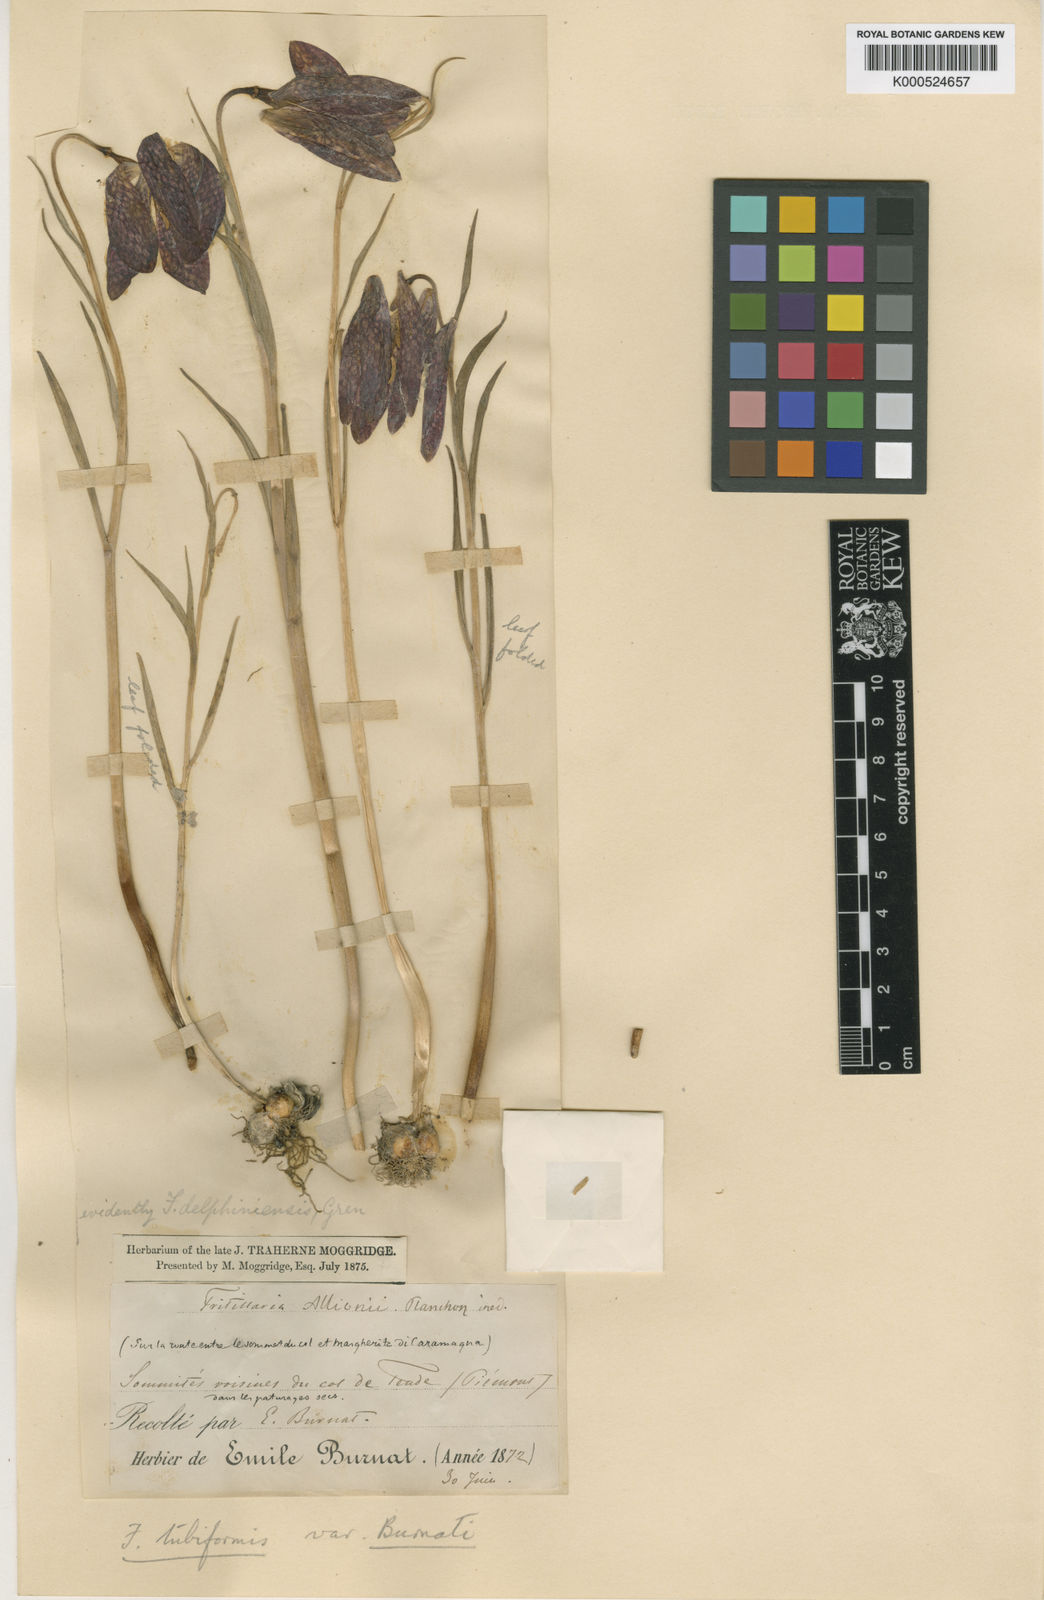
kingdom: Plantae
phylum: Tracheophyta
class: Liliopsida
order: Liliales
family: Liliaceae
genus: Fritillaria
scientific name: Fritillaria tubaeformis
